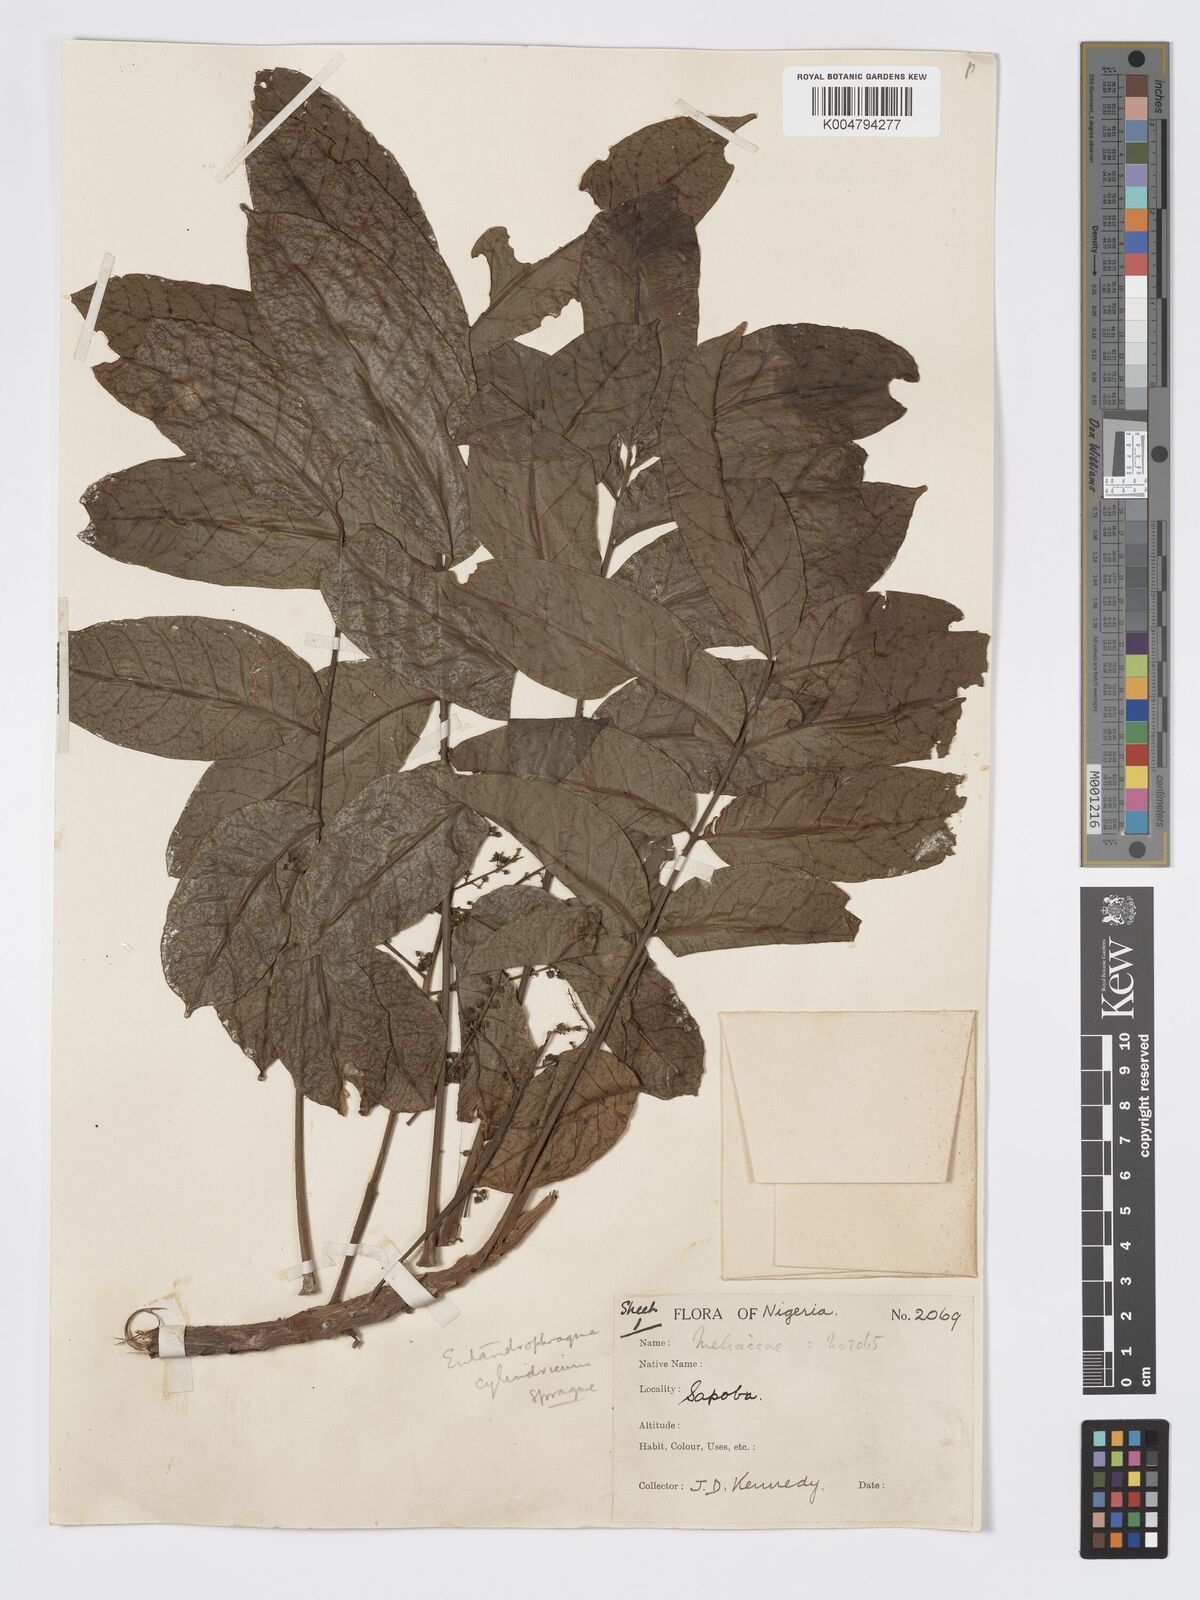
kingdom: Plantae
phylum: Tracheophyta
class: Magnoliopsida
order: Sapindales
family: Meliaceae
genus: Entandrophragma
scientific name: Entandrophragma cylindricum
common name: Sapele
